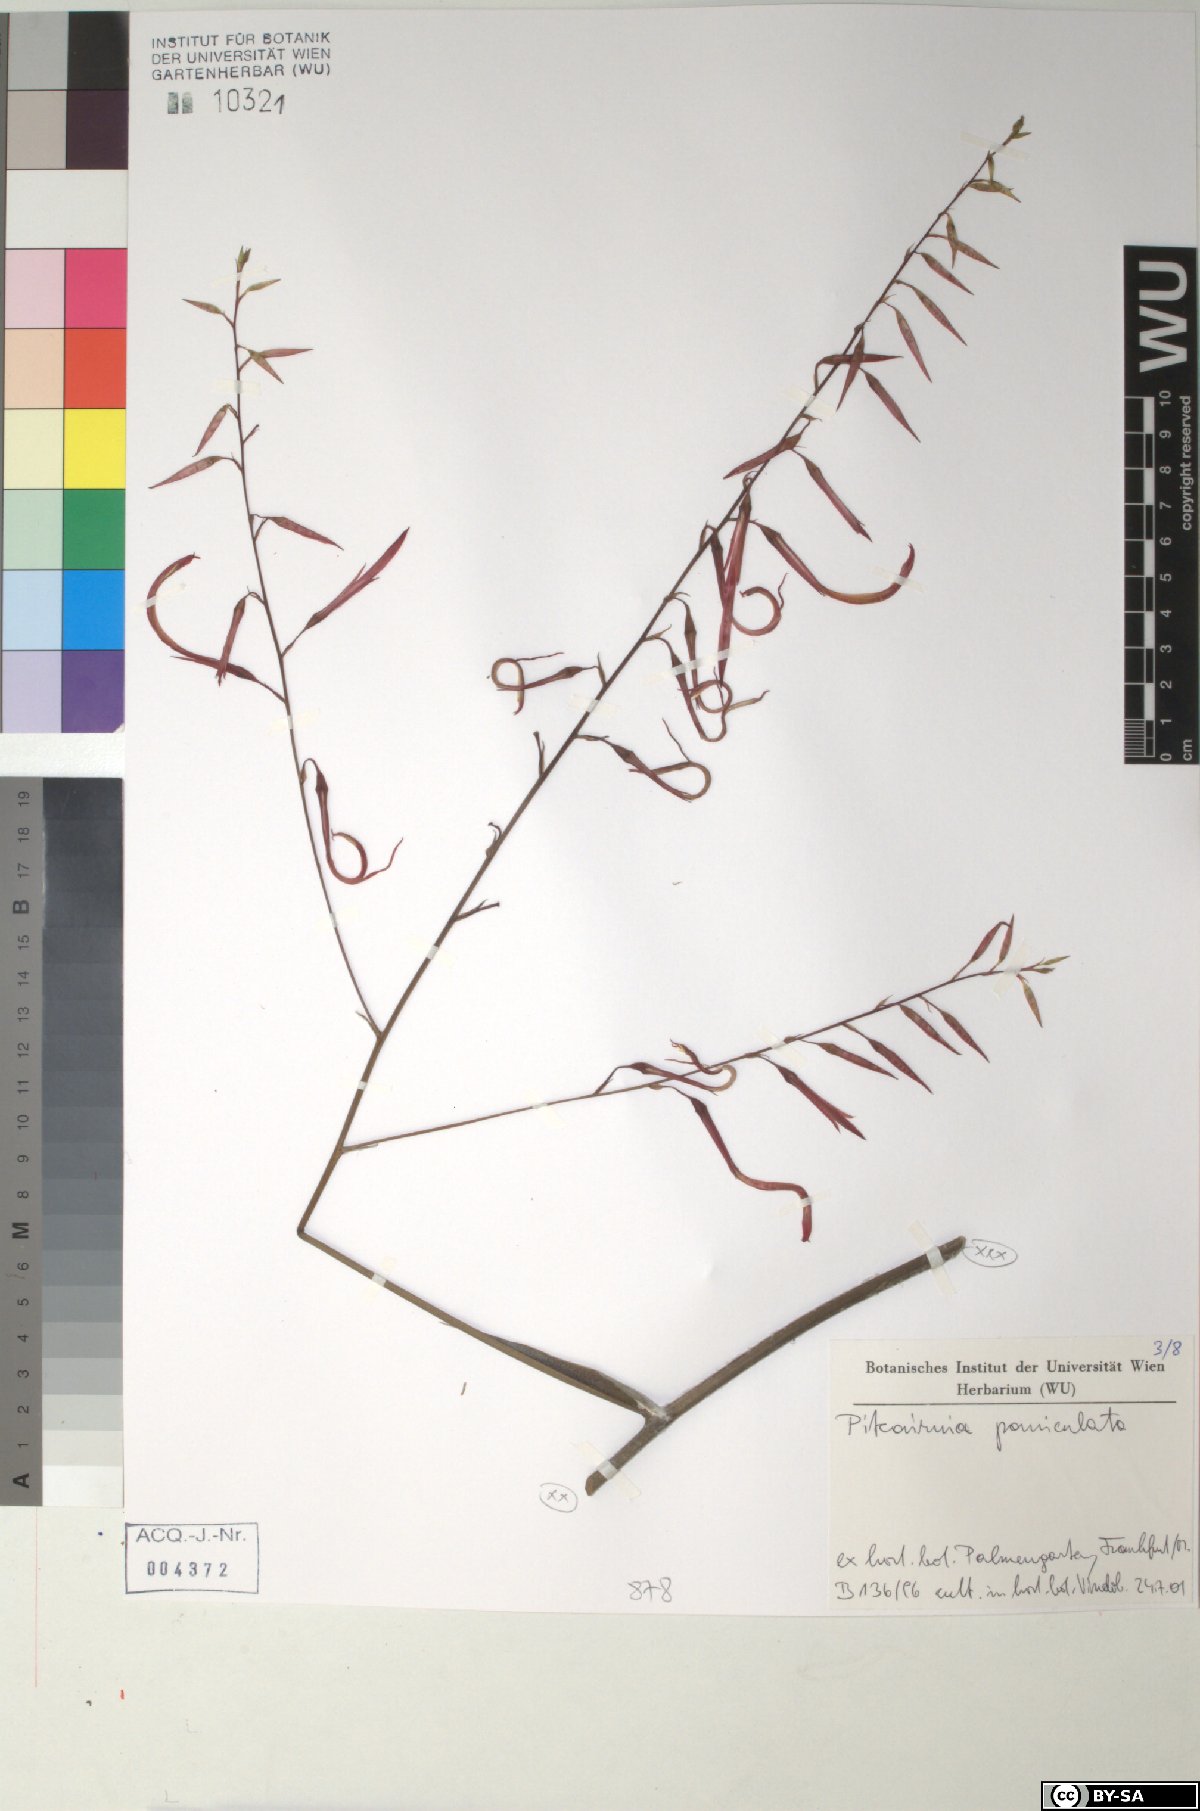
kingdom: Plantae
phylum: Tracheophyta
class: Liliopsida
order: Poales
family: Bromeliaceae
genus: Pitcairnia
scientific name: Pitcairnia paniculata
